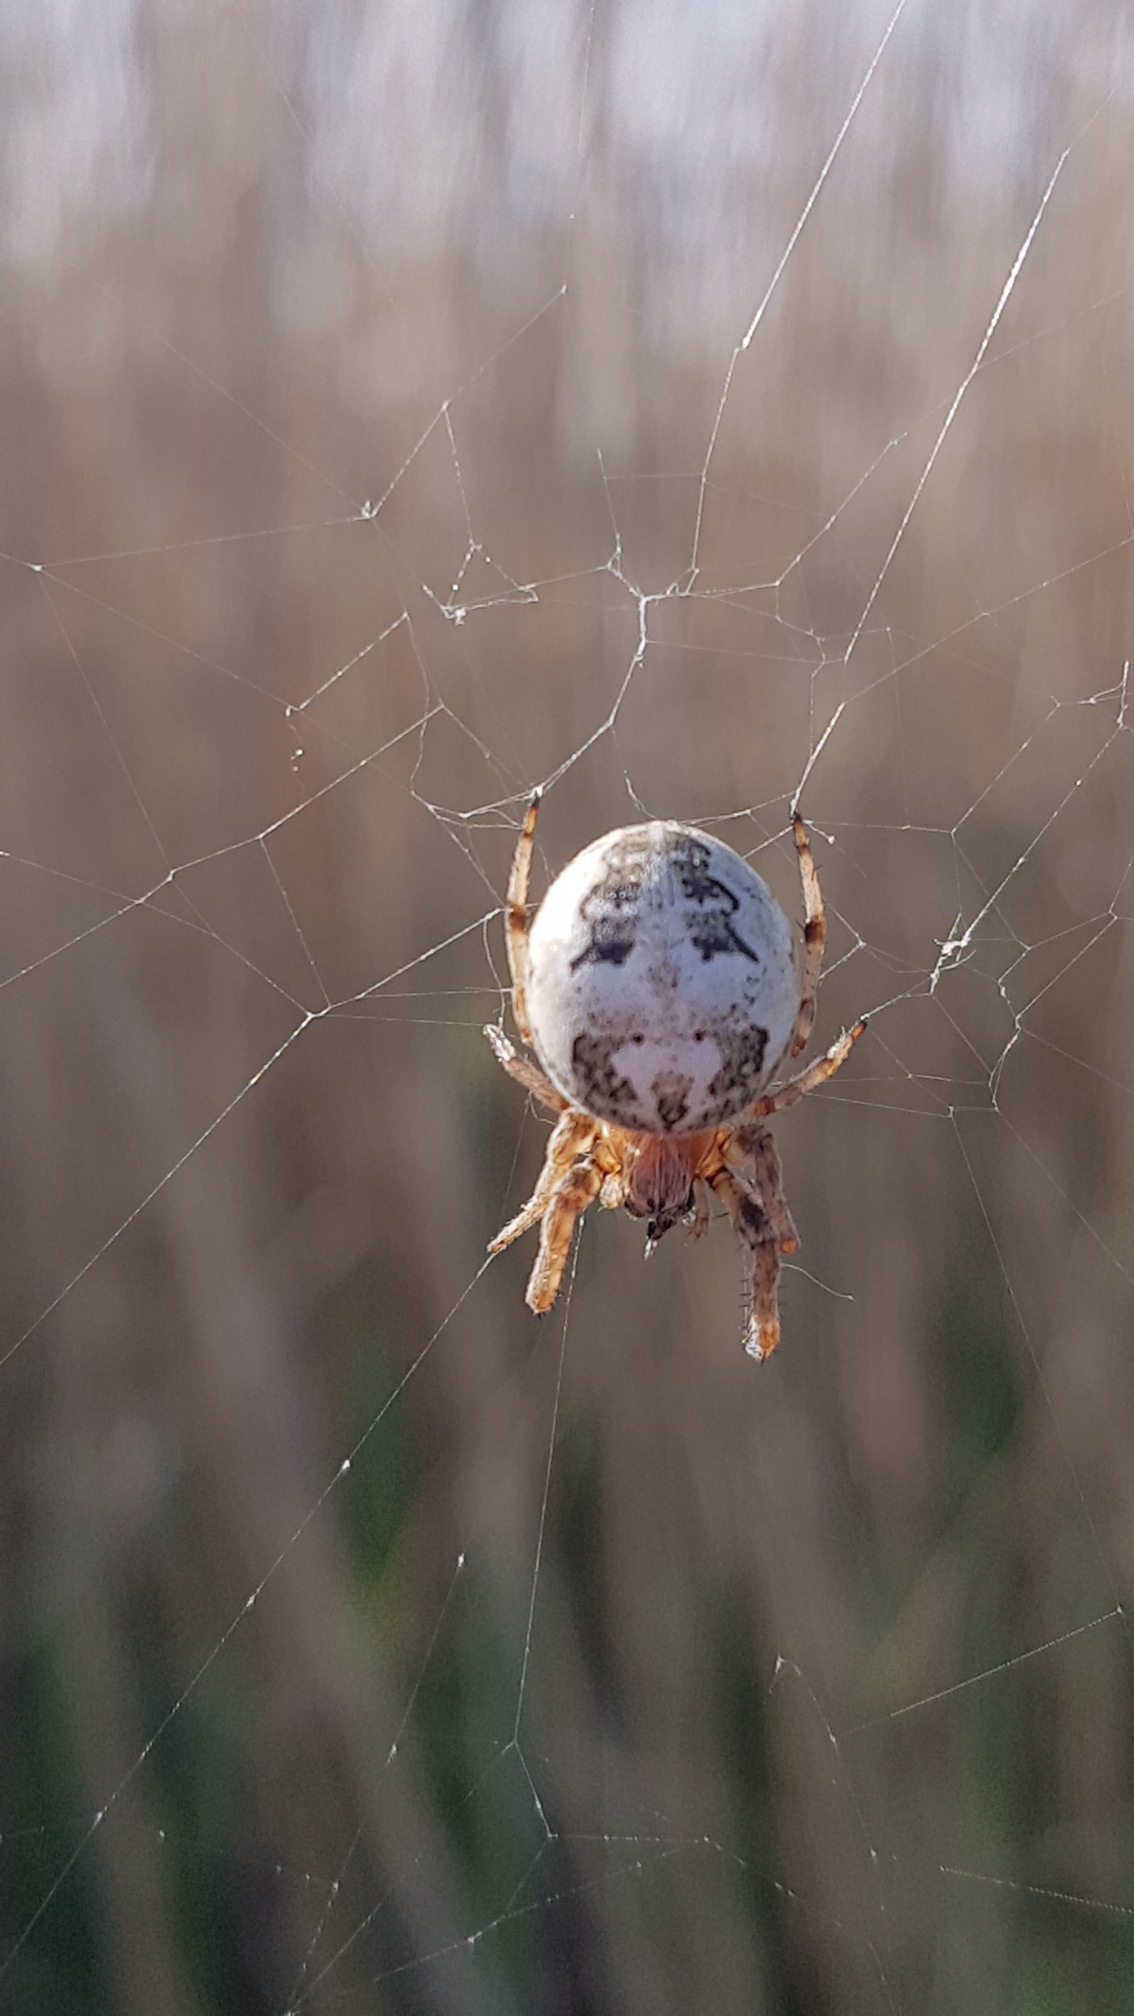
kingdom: Animalia
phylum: Arthropoda
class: Arachnida
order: Araneae
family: Araneidae
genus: Larinioides
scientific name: Larinioides cornutus
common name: Sivhjulspinder
